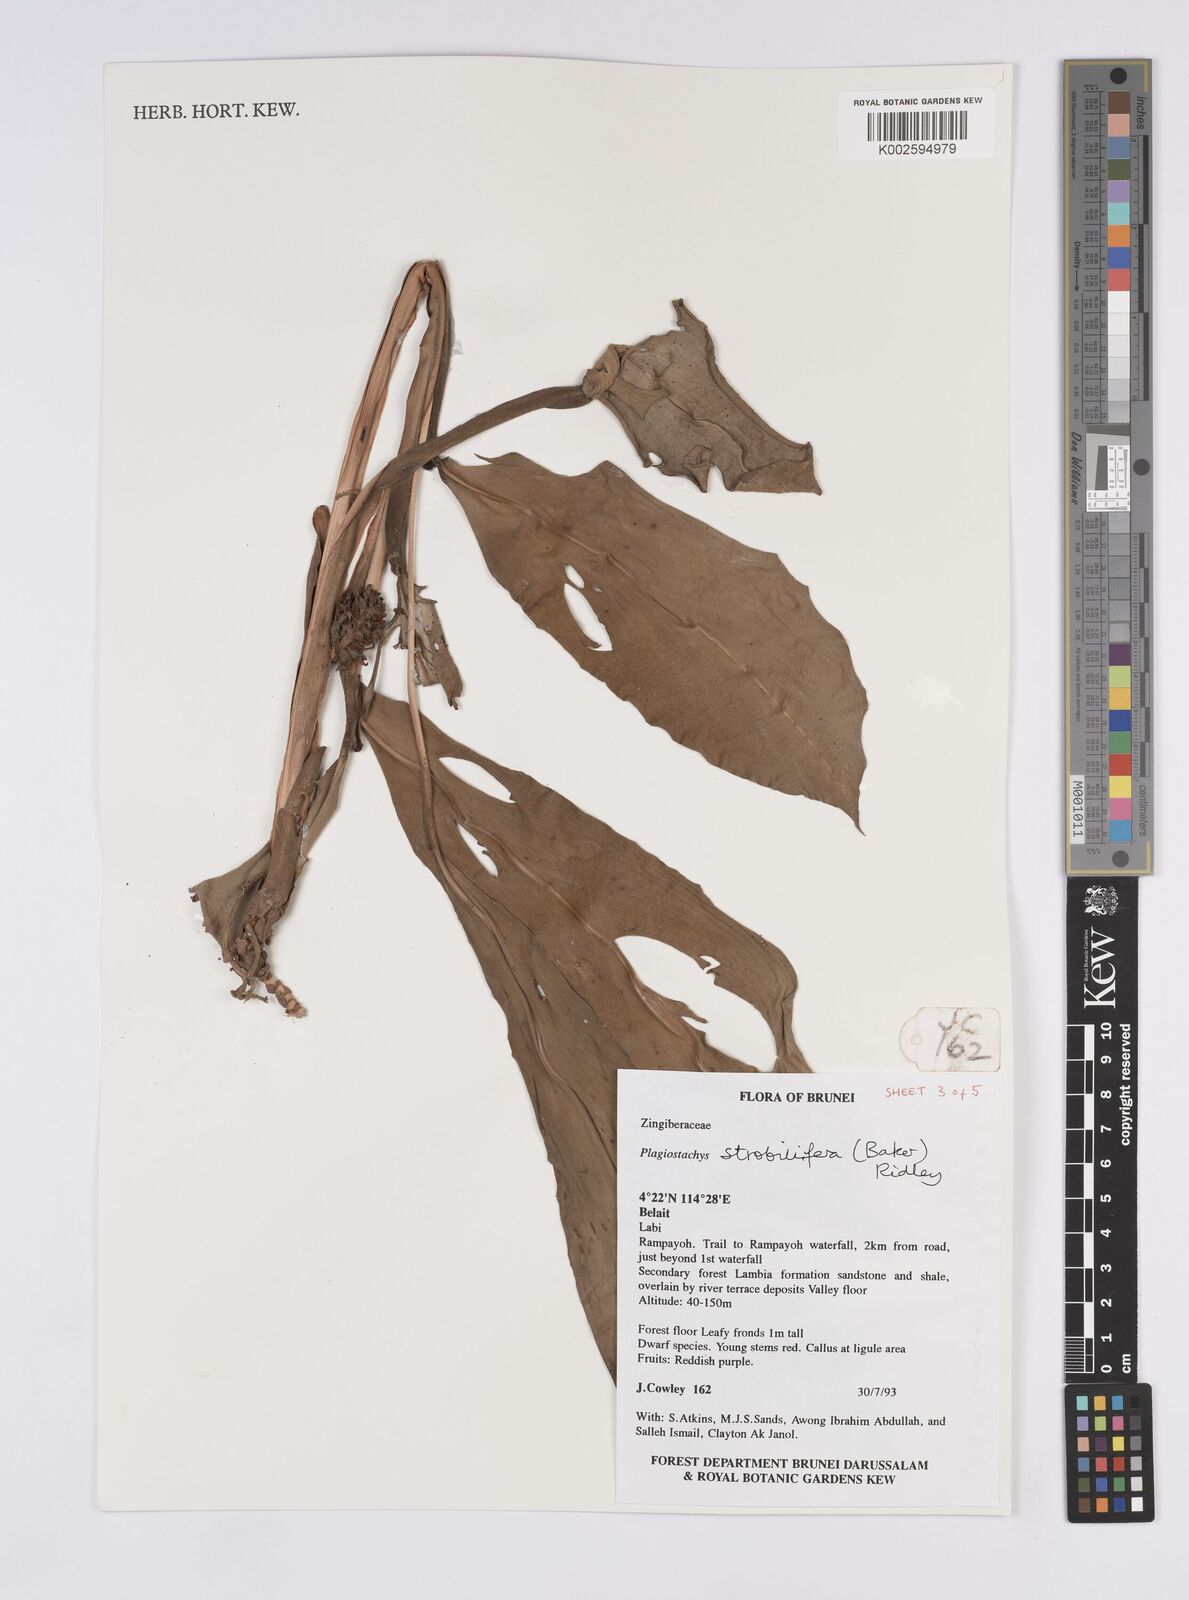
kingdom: Plantae
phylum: Tracheophyta
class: Liliopsida
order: Zingiberales
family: Zingiberaceae
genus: Plagiostachys
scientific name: Plagiostachys strobilifera
